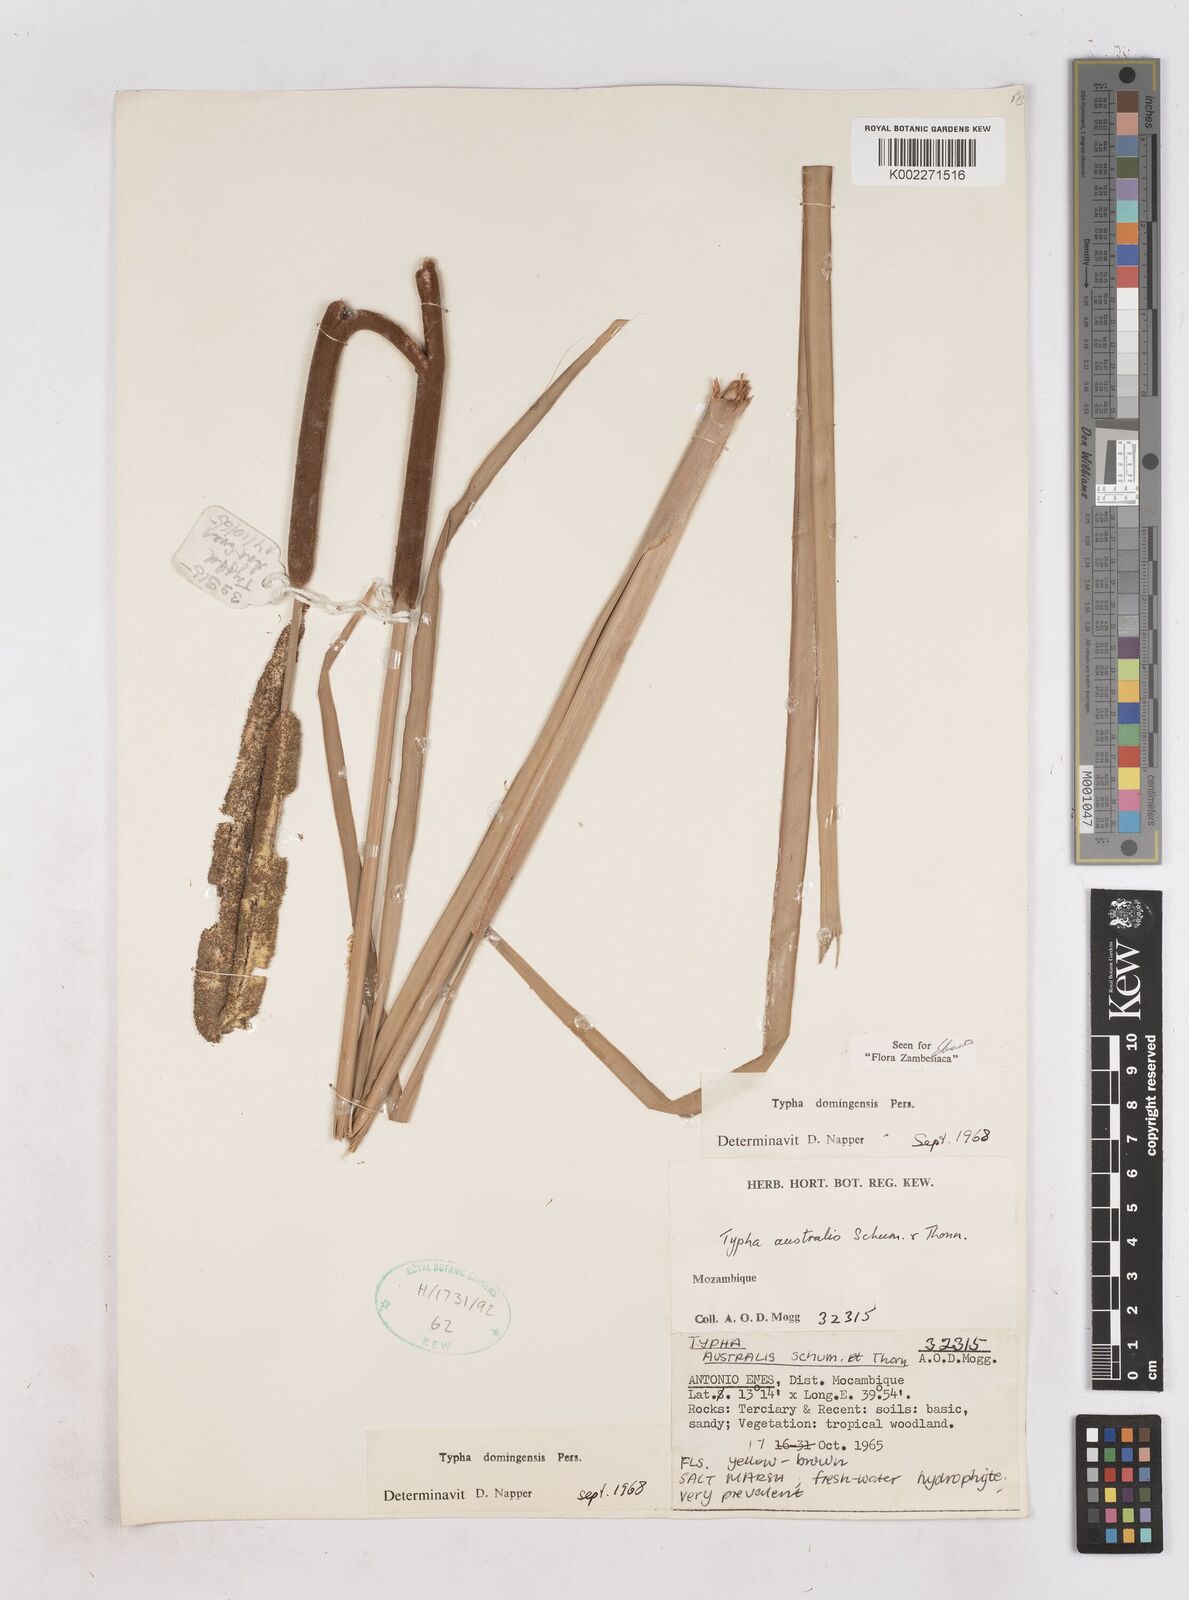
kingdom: Plantae
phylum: Tracheophyta
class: Liliopsida
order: Poales
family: Typhaceae
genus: Typha
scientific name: Typha domingensis
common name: Southern cattail
